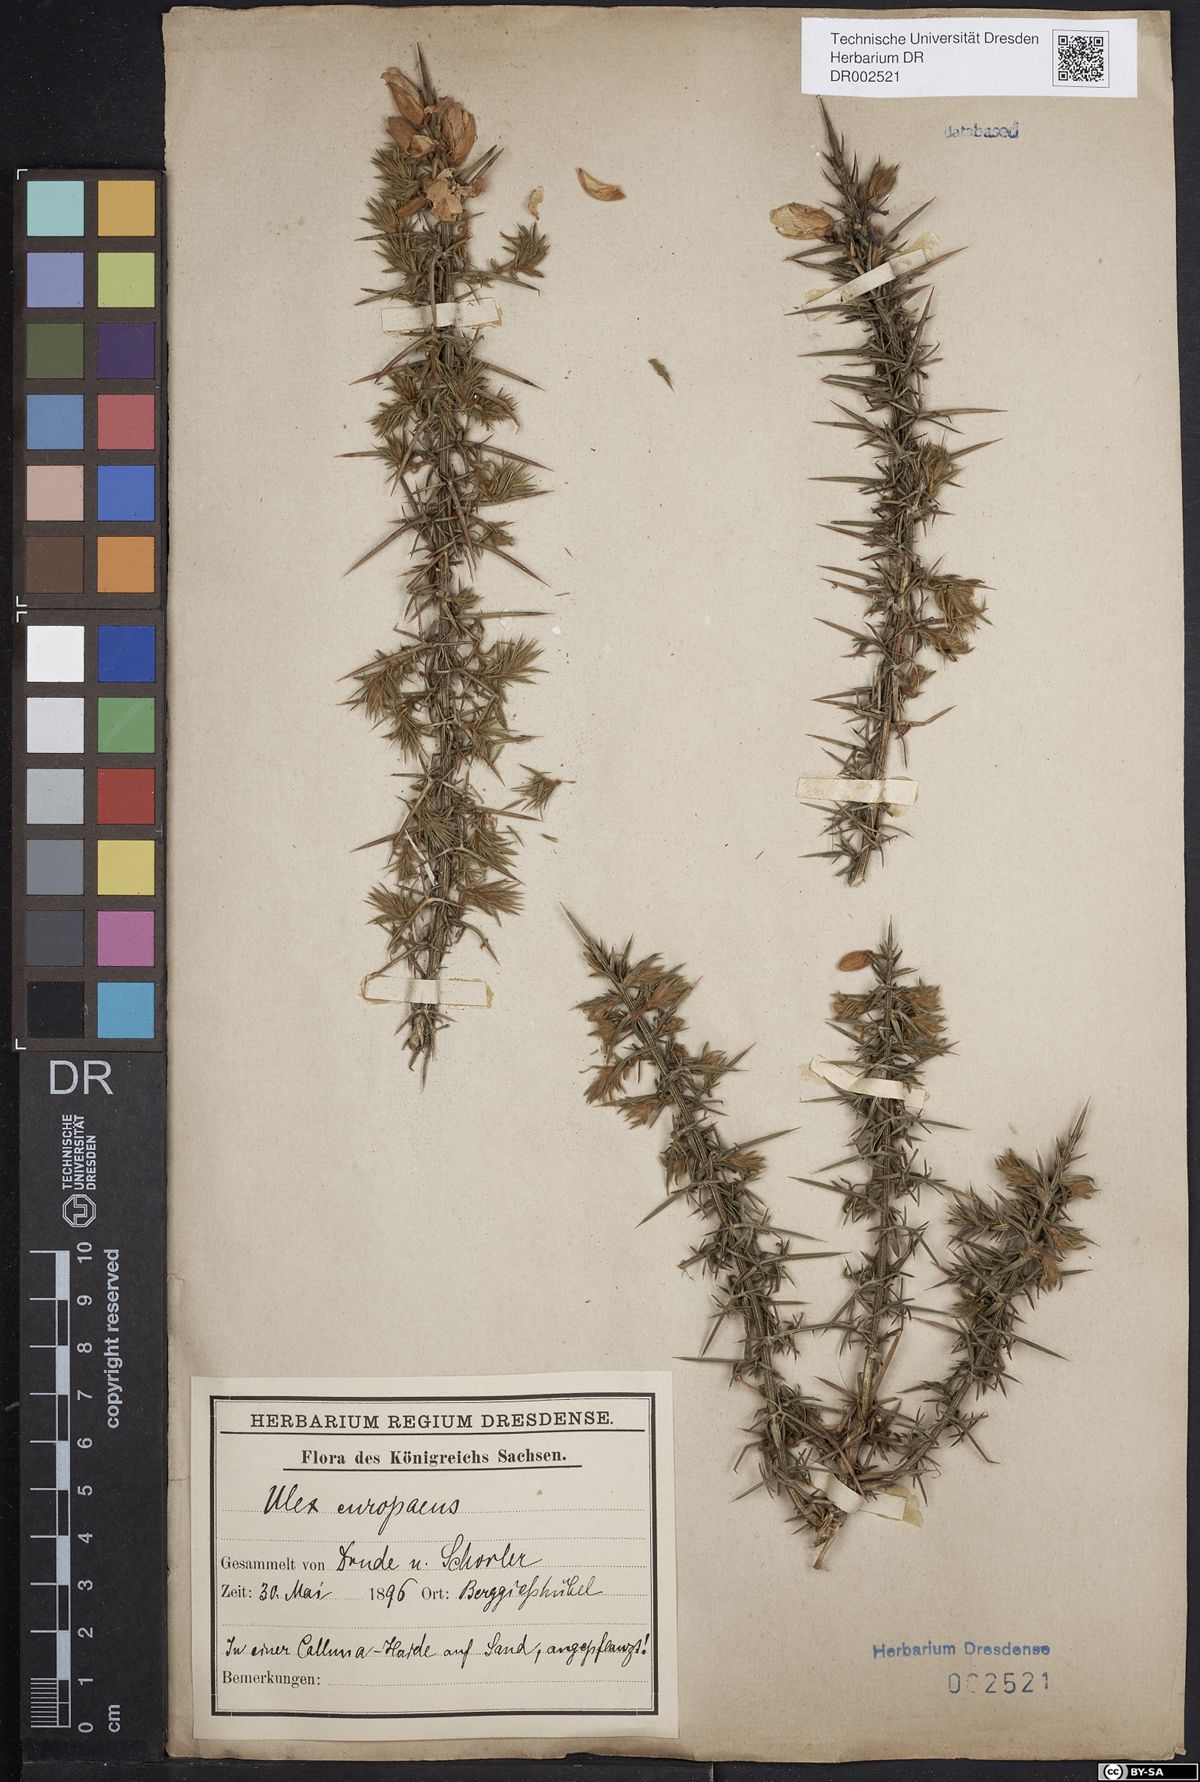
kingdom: Plantae
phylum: Tracheophyta
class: Magnoliopsida
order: Fabales
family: Fabaceae
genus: Ulex
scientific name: Ulex europaeus
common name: Common gorse
